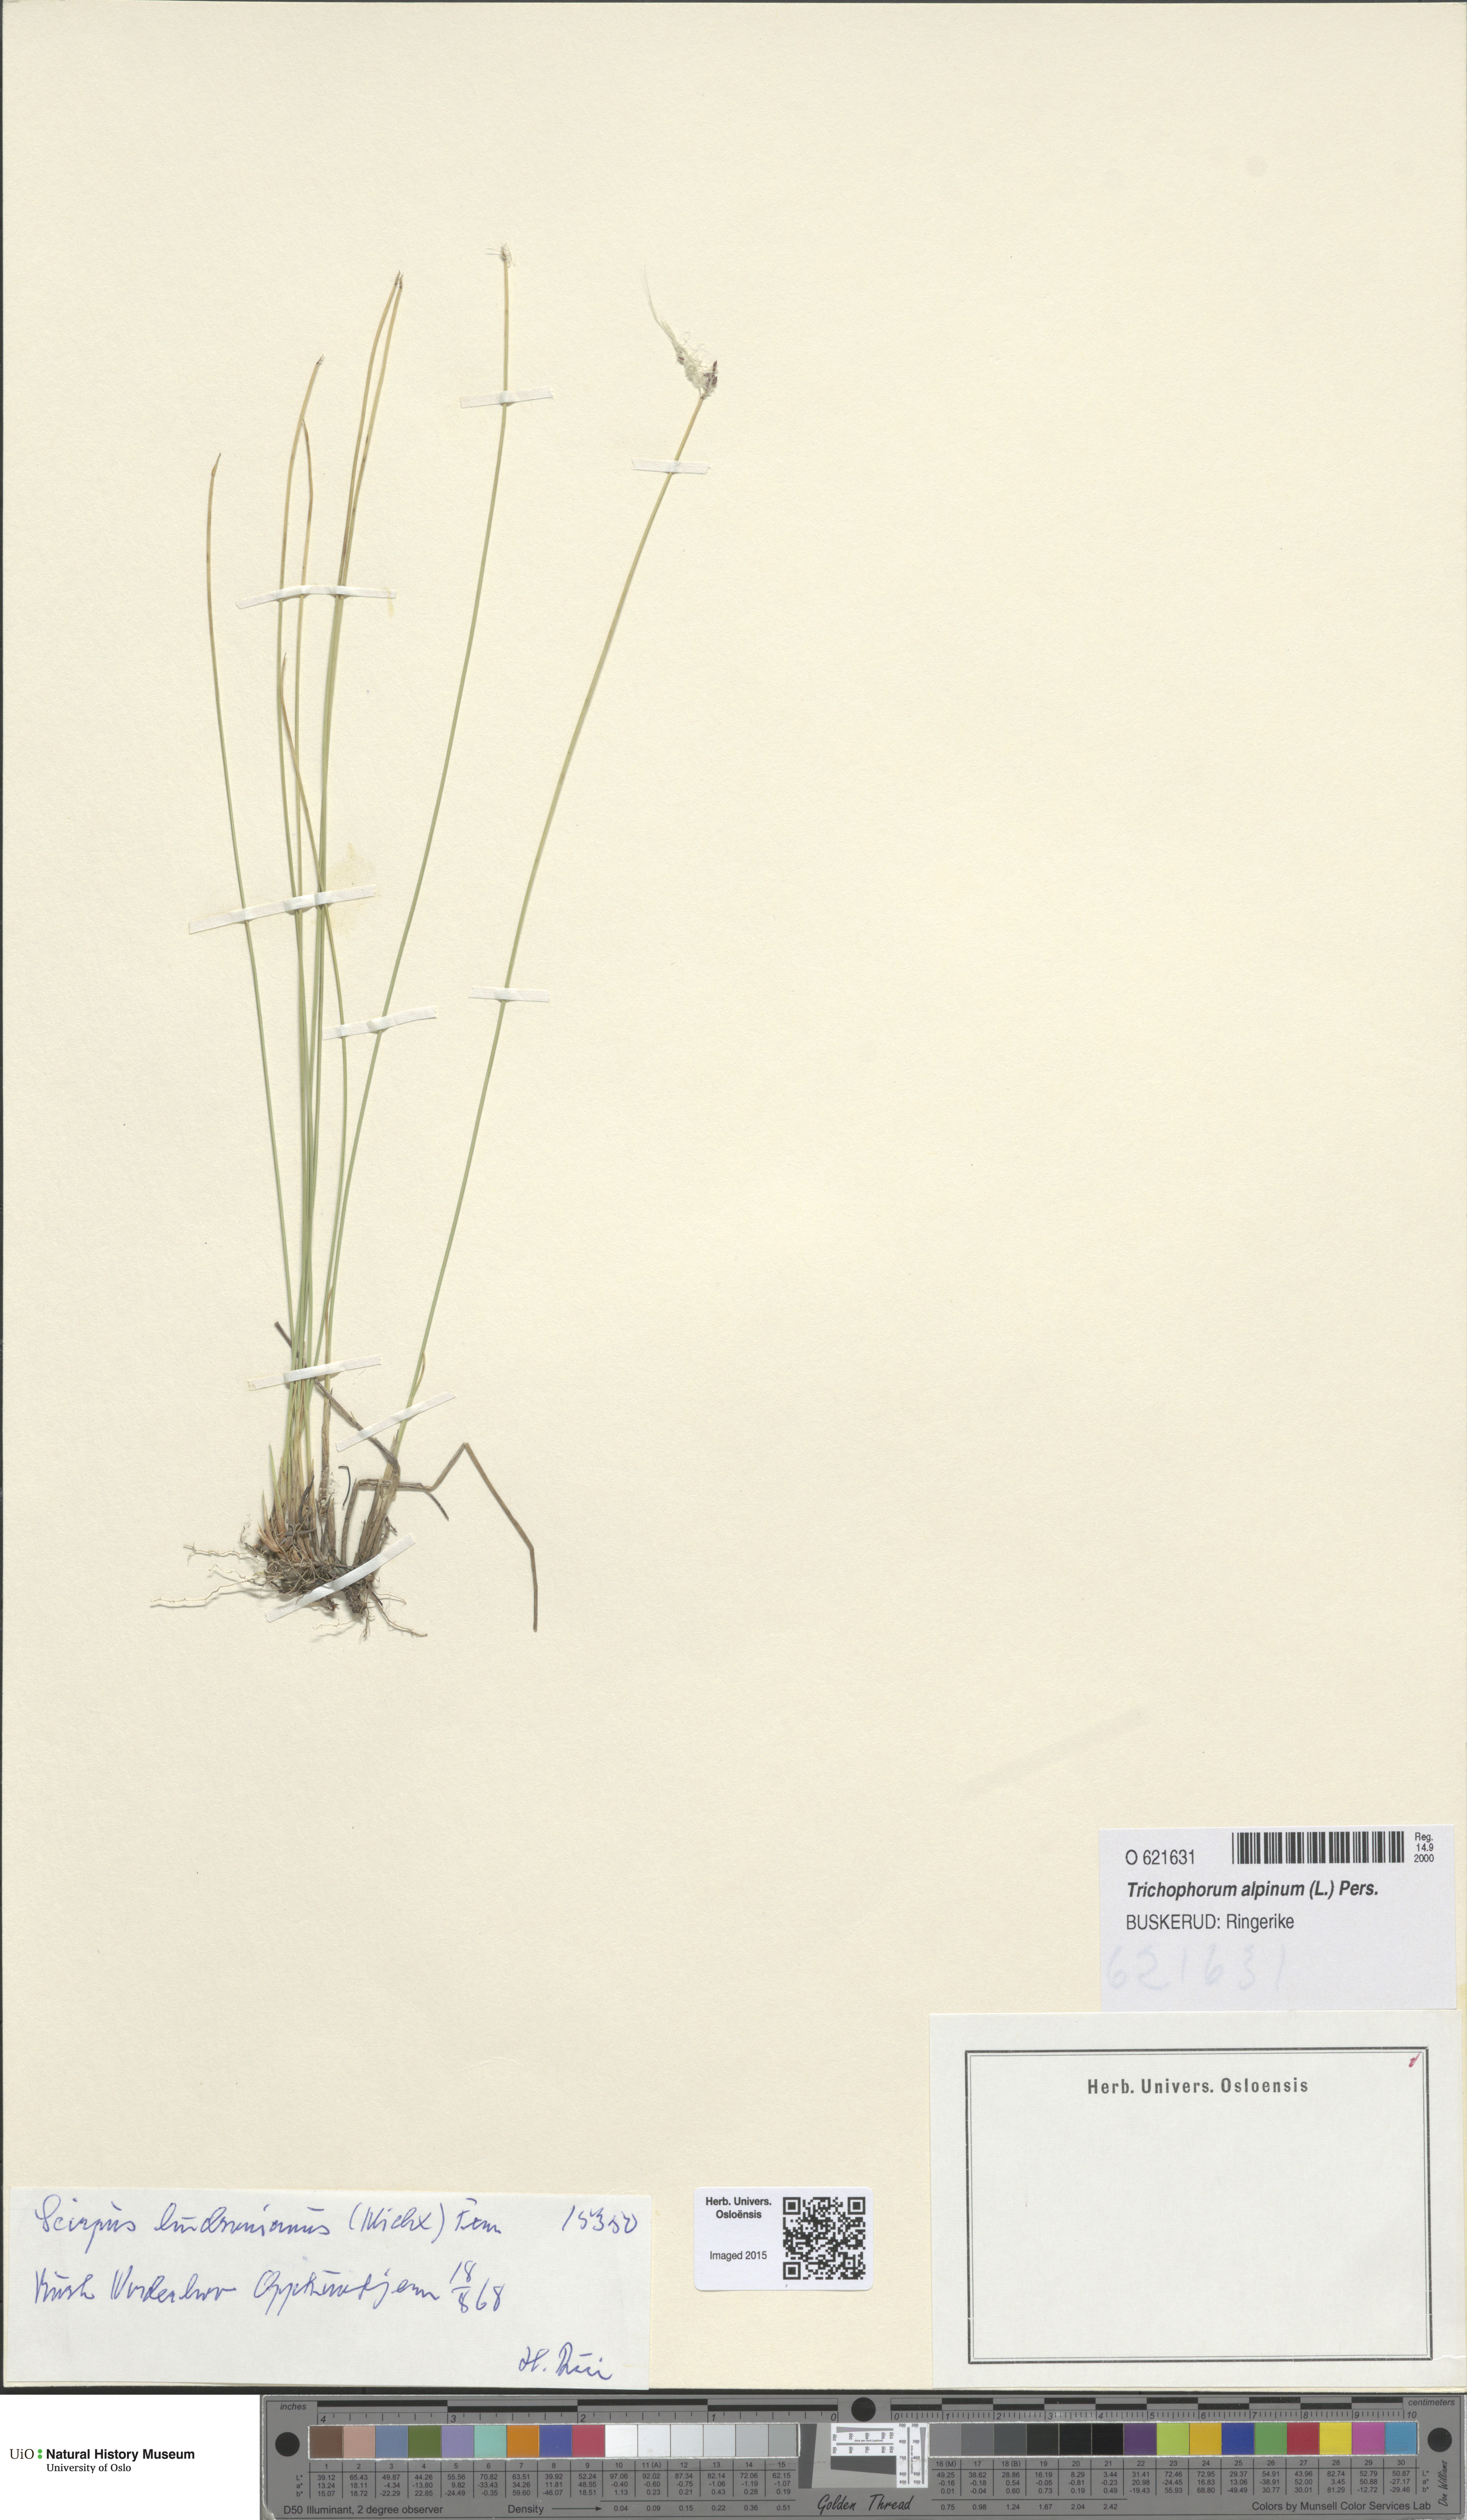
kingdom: Plantae
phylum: Tracheophyta
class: Liliopsida
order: Poales
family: Cyperaceae
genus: Trichophorum
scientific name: Trichophorum alpinum
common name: Alpine bulrush
